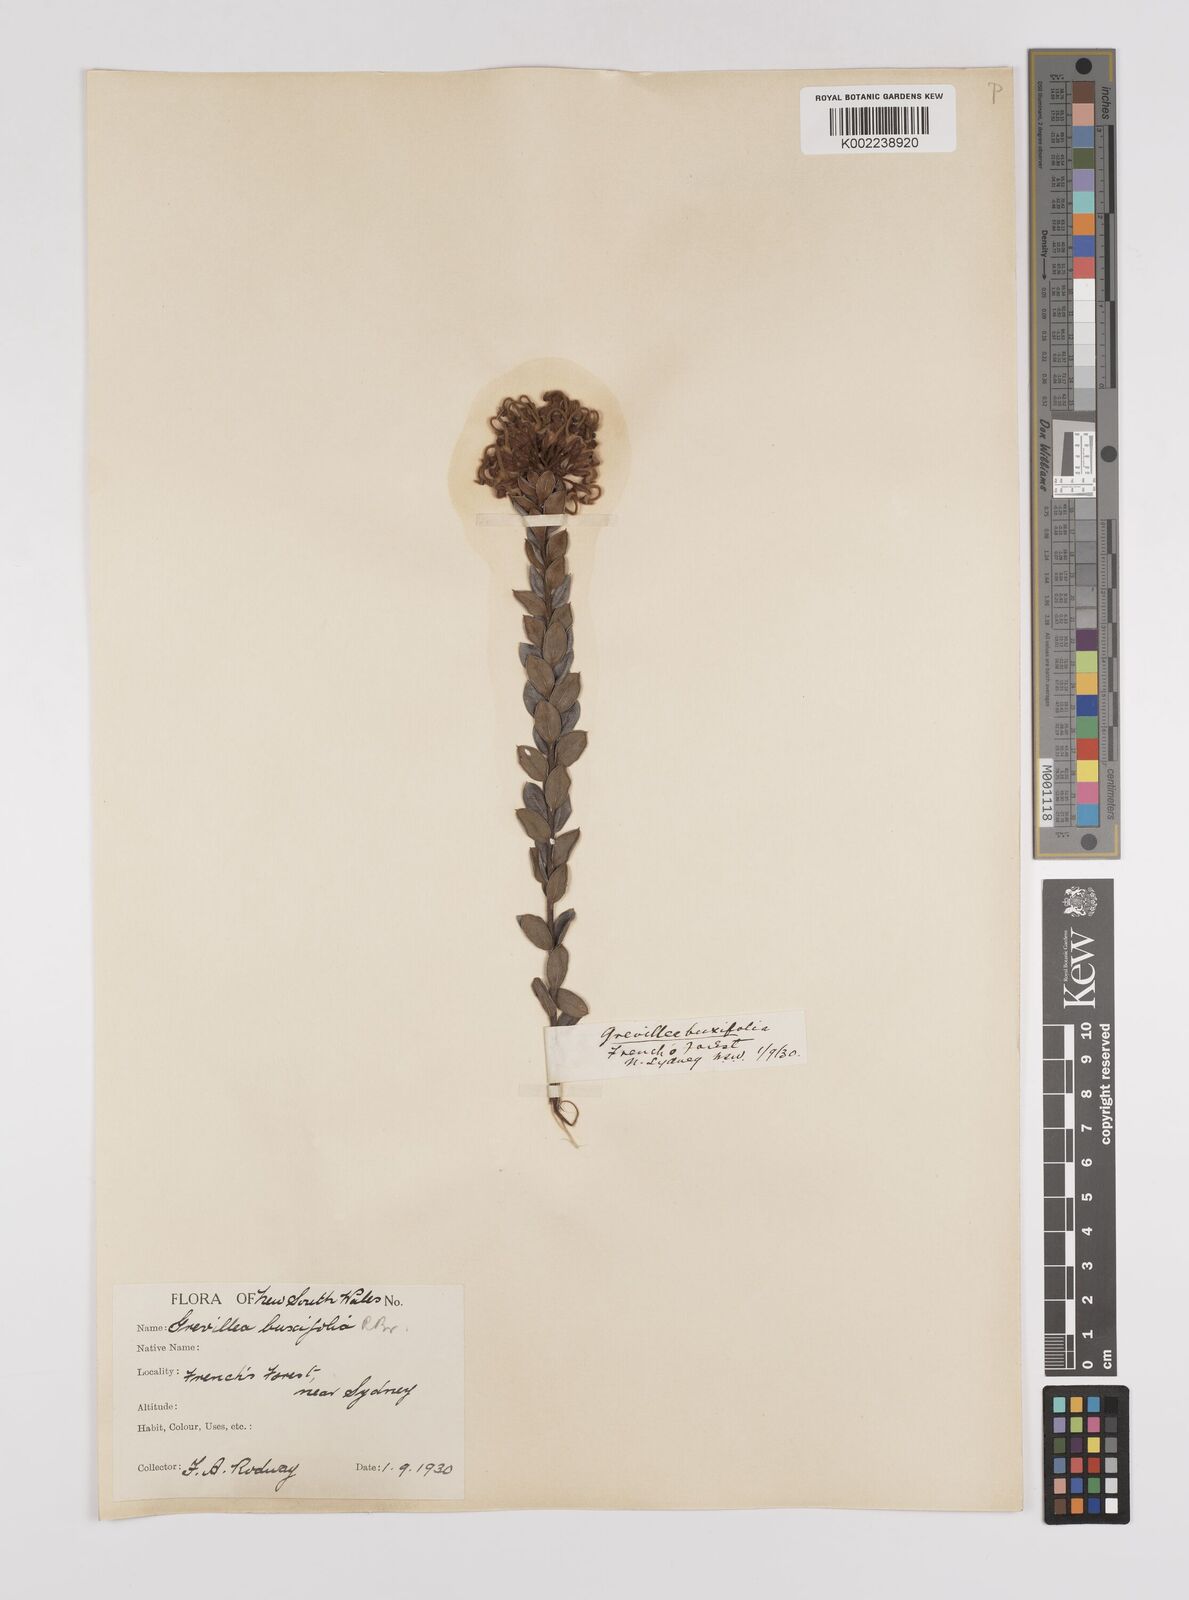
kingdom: Plantae
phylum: Tracheophyta
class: Magnoliopsida
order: Proteales
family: Proteaceae
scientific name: Proteaceae
